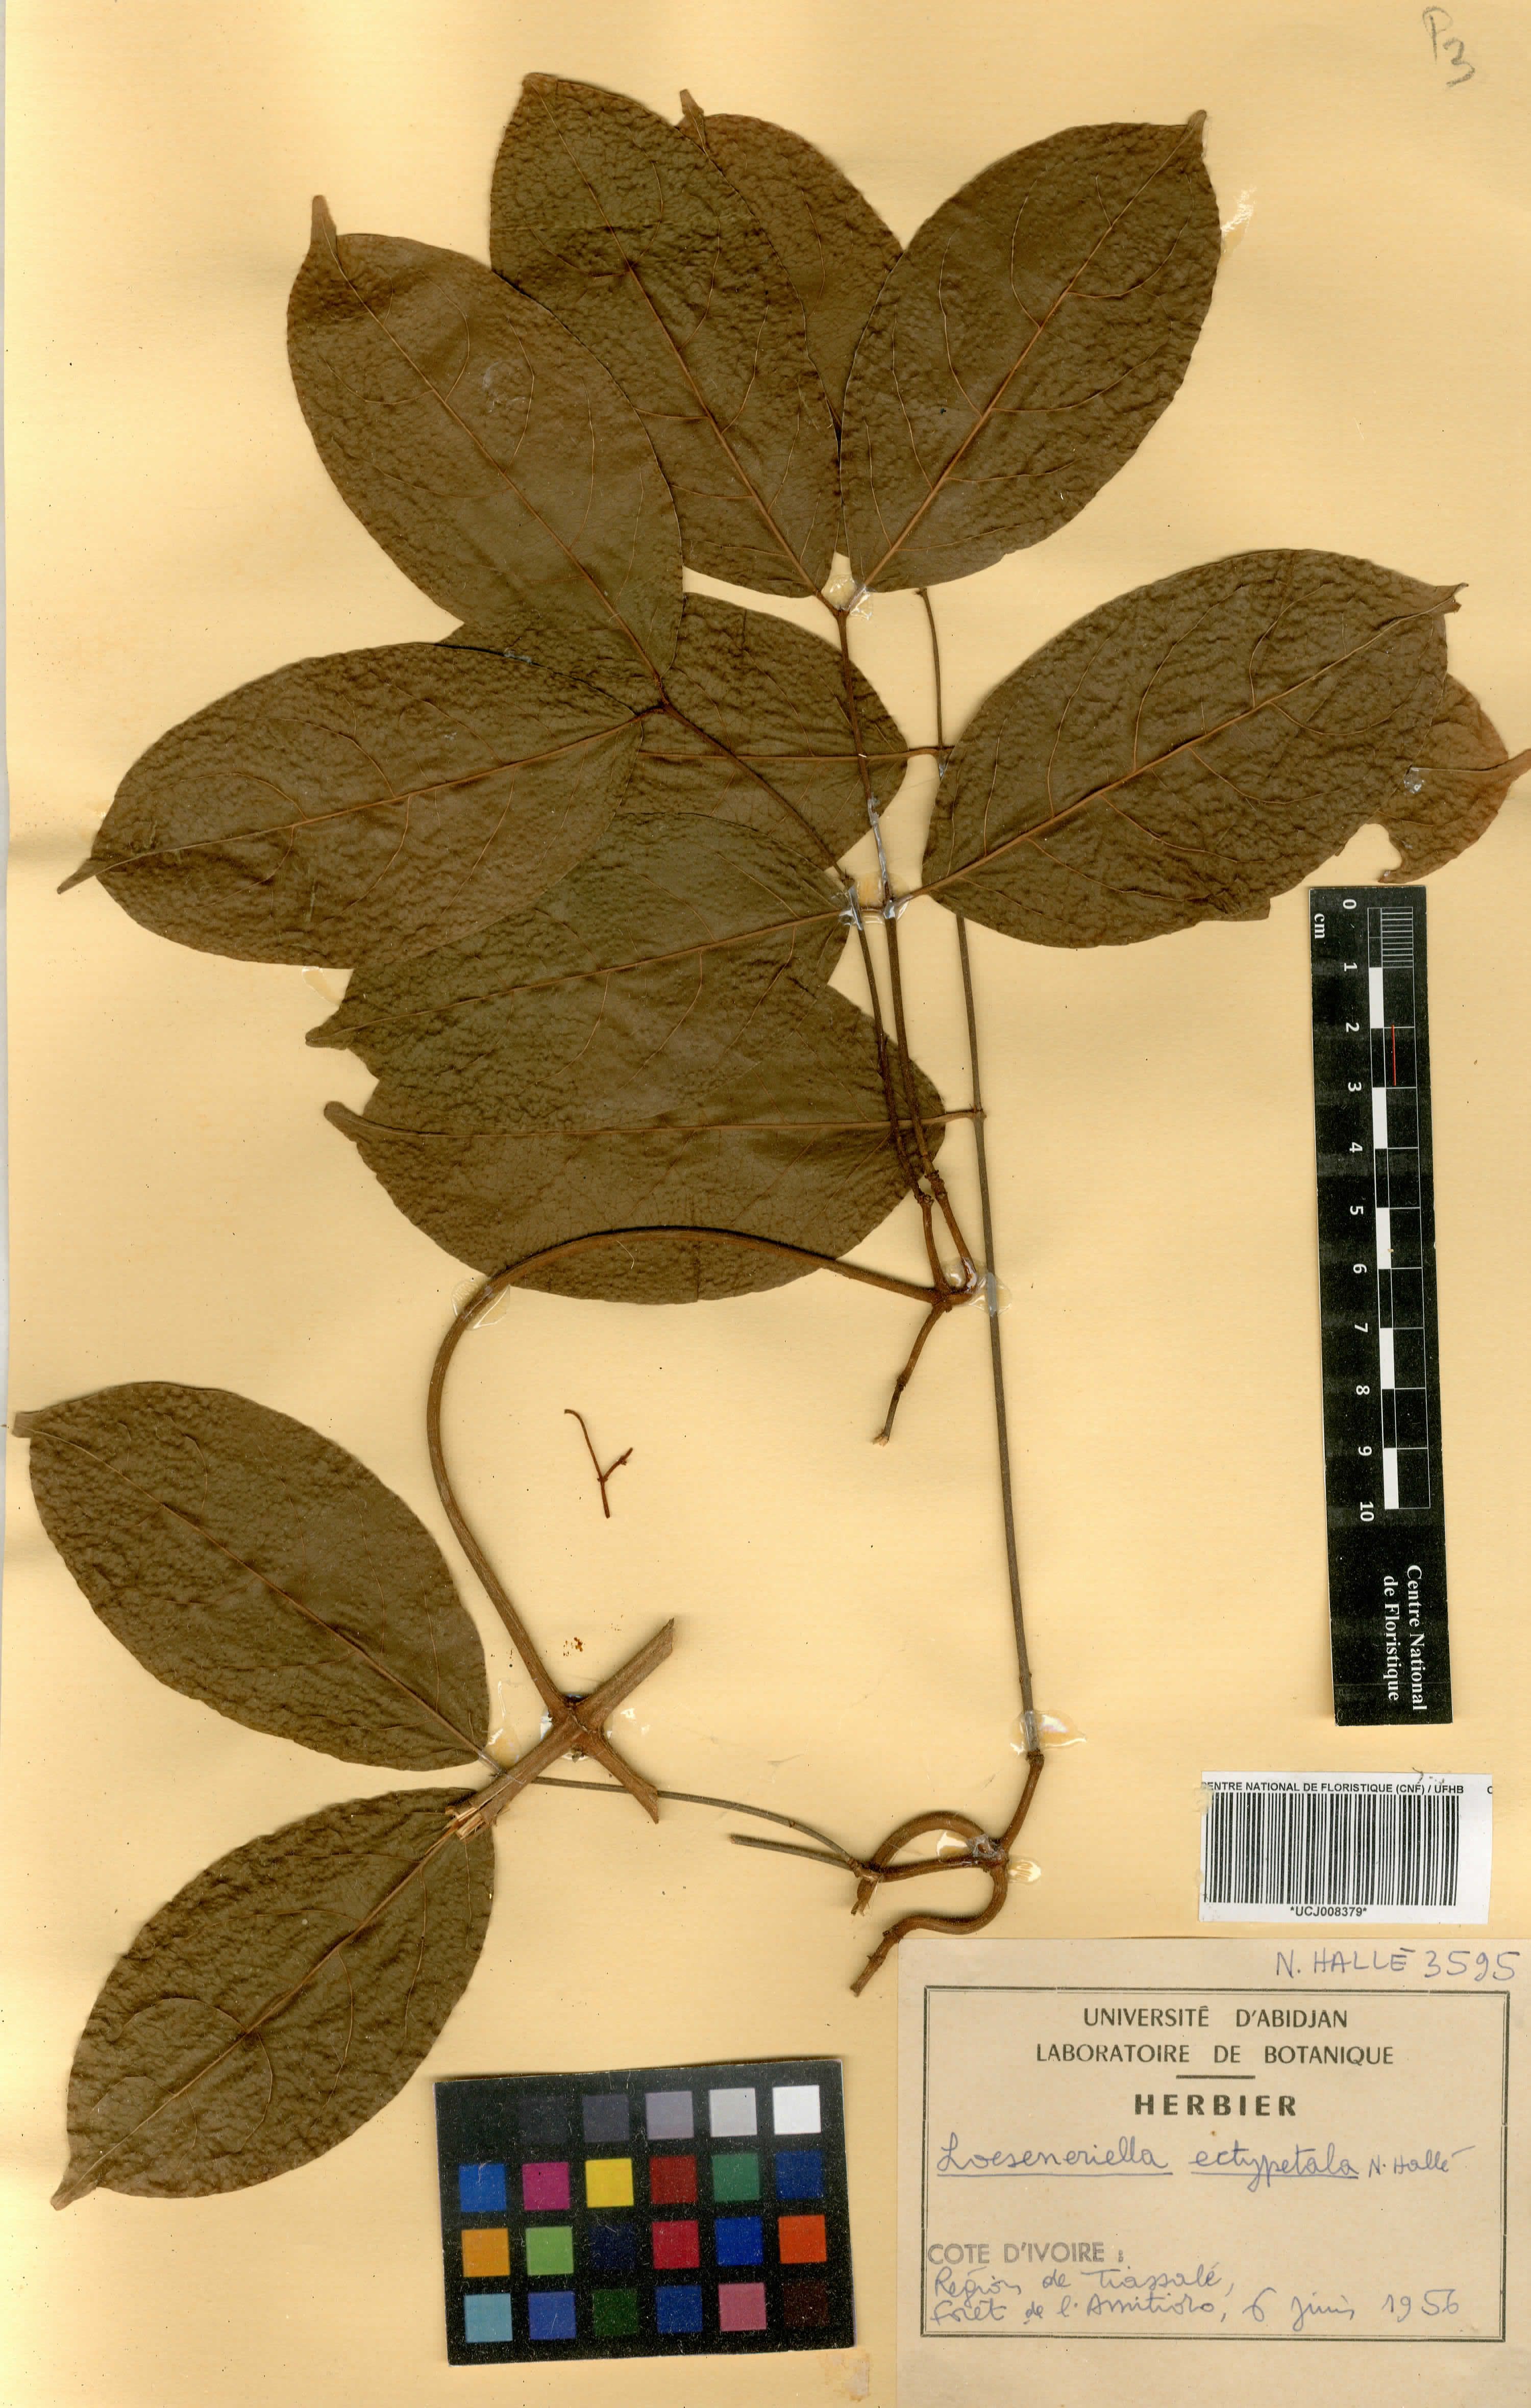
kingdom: Plantae
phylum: Tracheophyta
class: Magnoliopsida
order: Celastrales
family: Celastraceae
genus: Loeseneriella
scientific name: Loeseneriella ectypopetala
